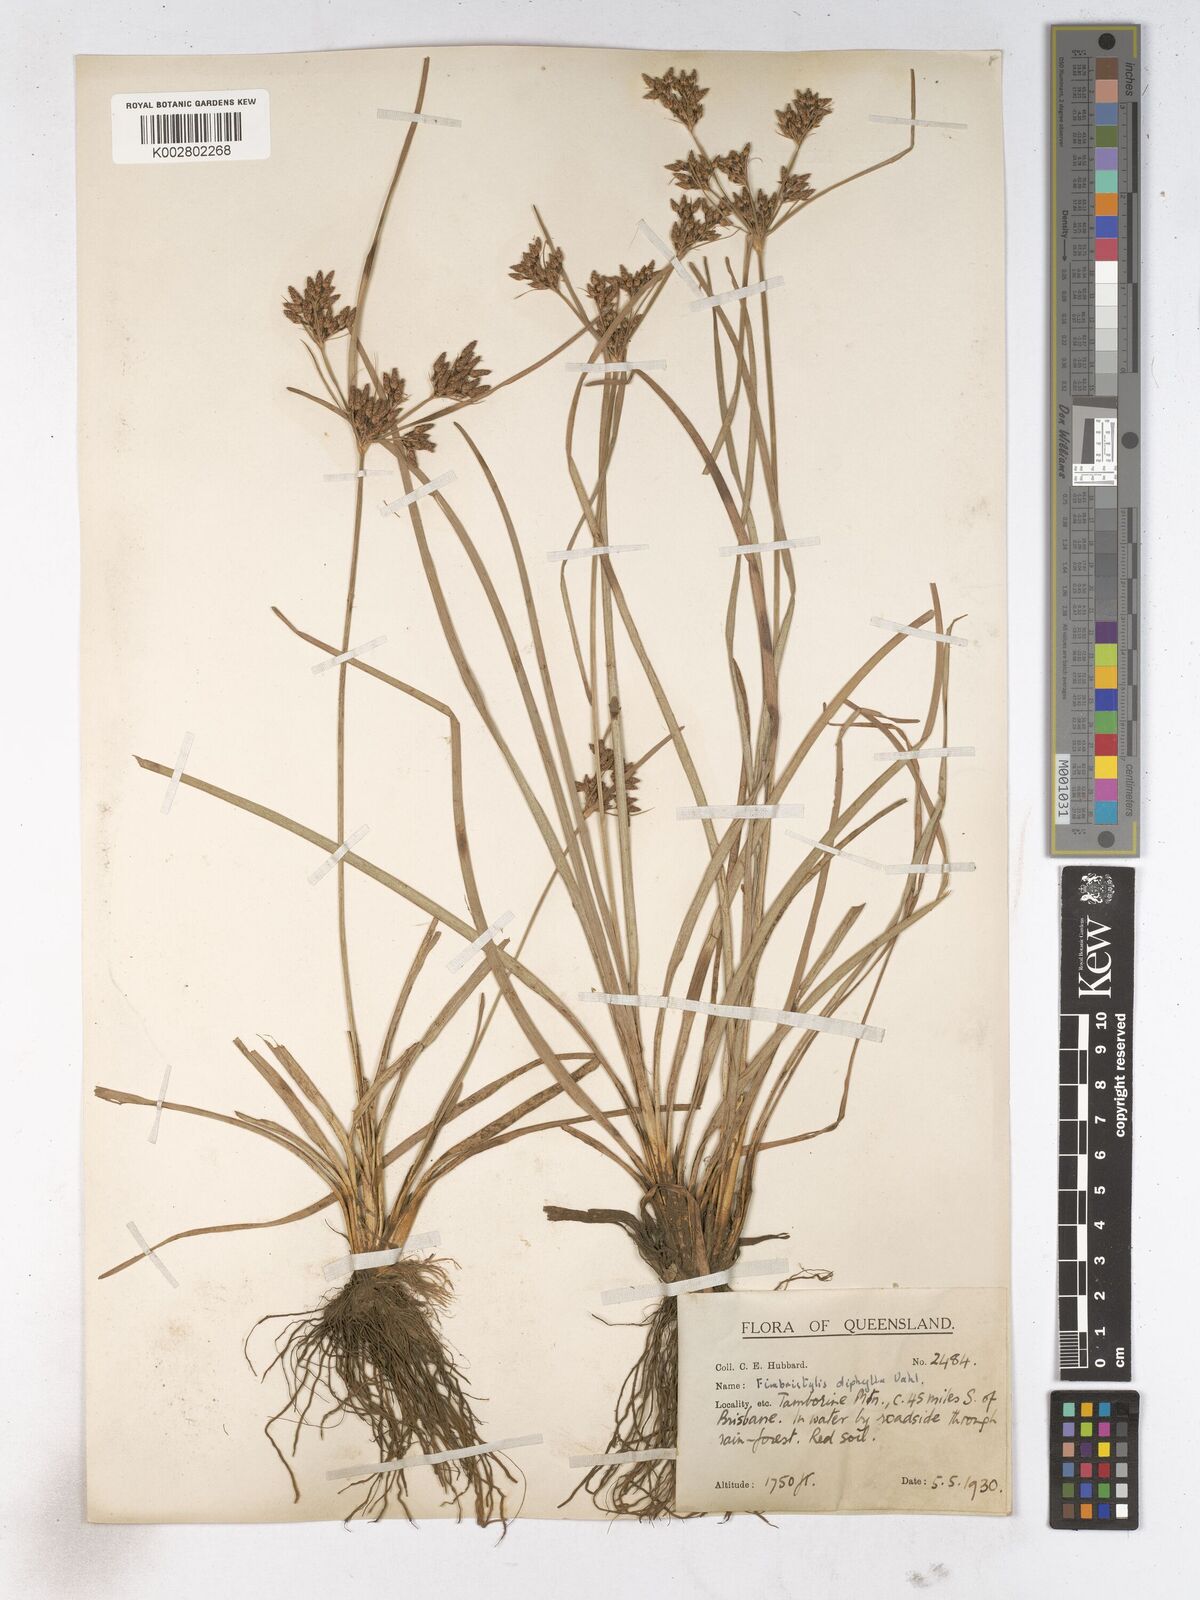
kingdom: Plantae
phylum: Tracheophyta
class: Liliopsida
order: Poales
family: Cyperaceae
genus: Fimbristylis
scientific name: Fimbristylis dichotoma
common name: Forked fimbry
